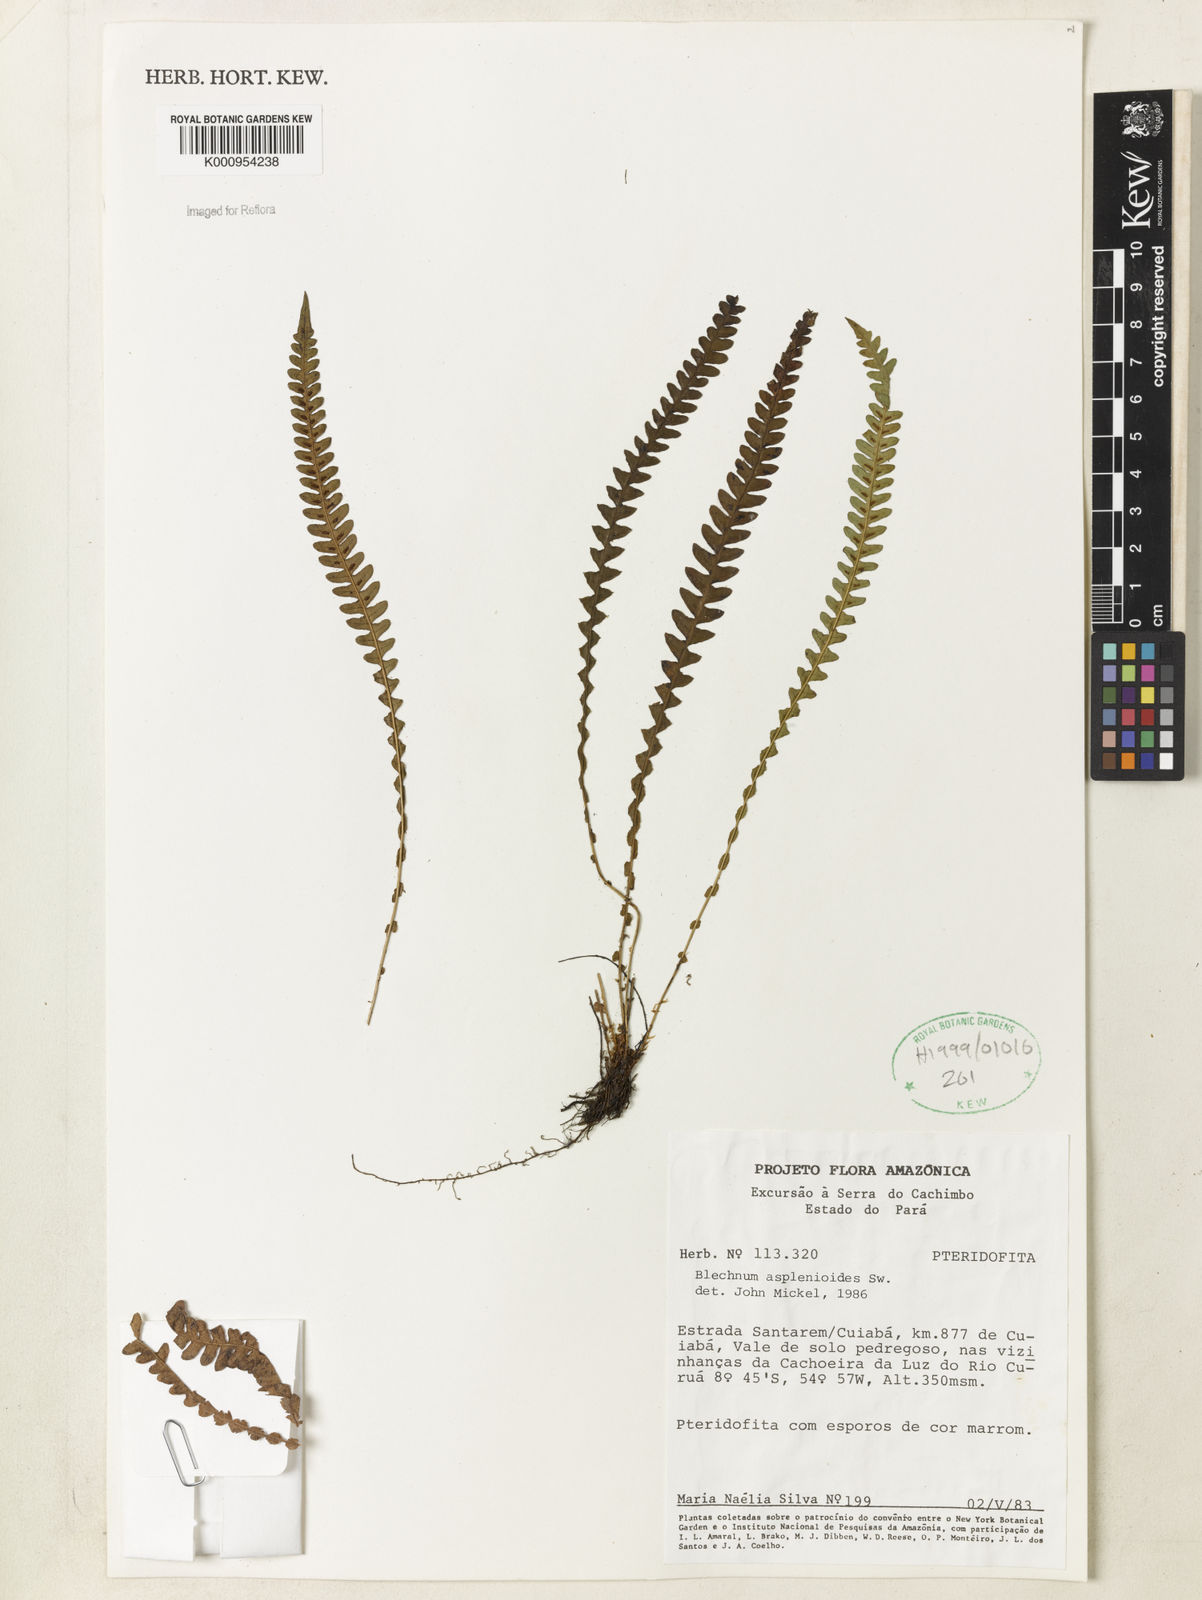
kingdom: Plantae
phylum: Tracheophyta
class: Polypodiopsida
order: Polypodiales
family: Blechnaceae
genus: Blechnum
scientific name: Blechnum asplenioides
